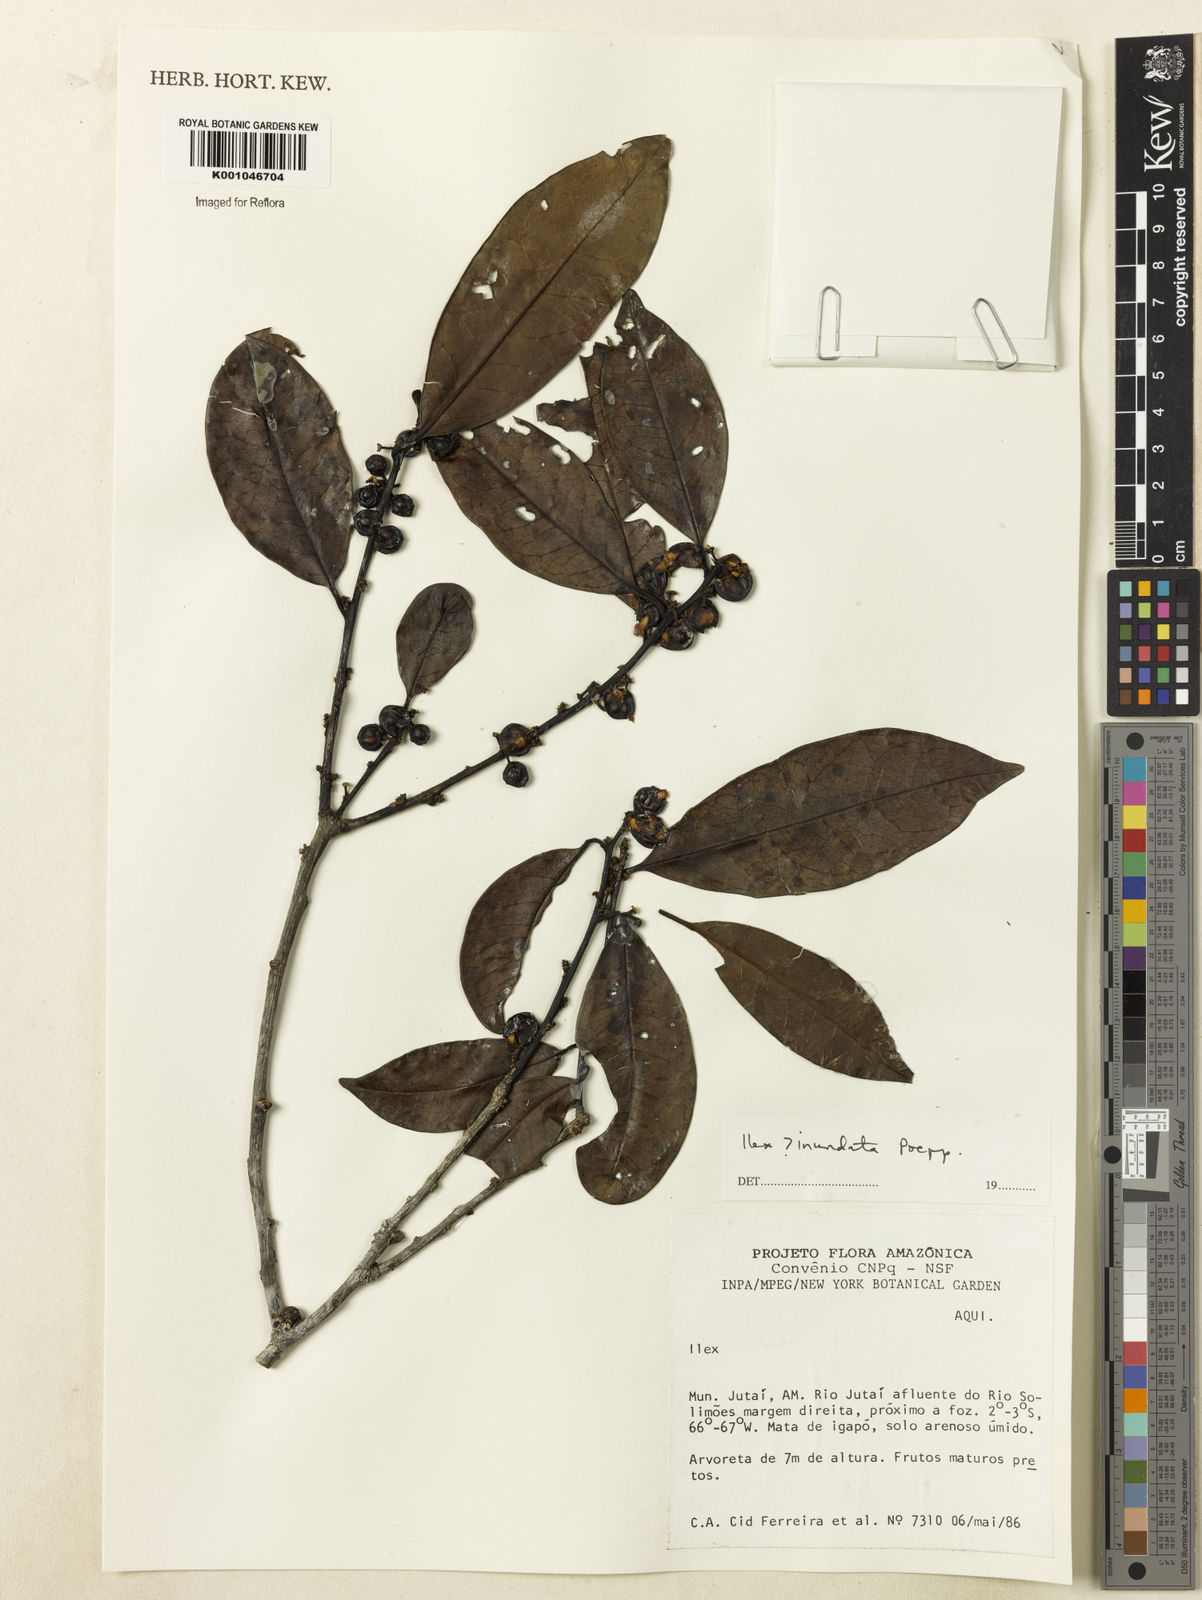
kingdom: Plantae
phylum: Tracheophyta
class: Magnoliopsida
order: Aquifoliales
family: Aquifoliaceae
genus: Ilex
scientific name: Ilex inundata
